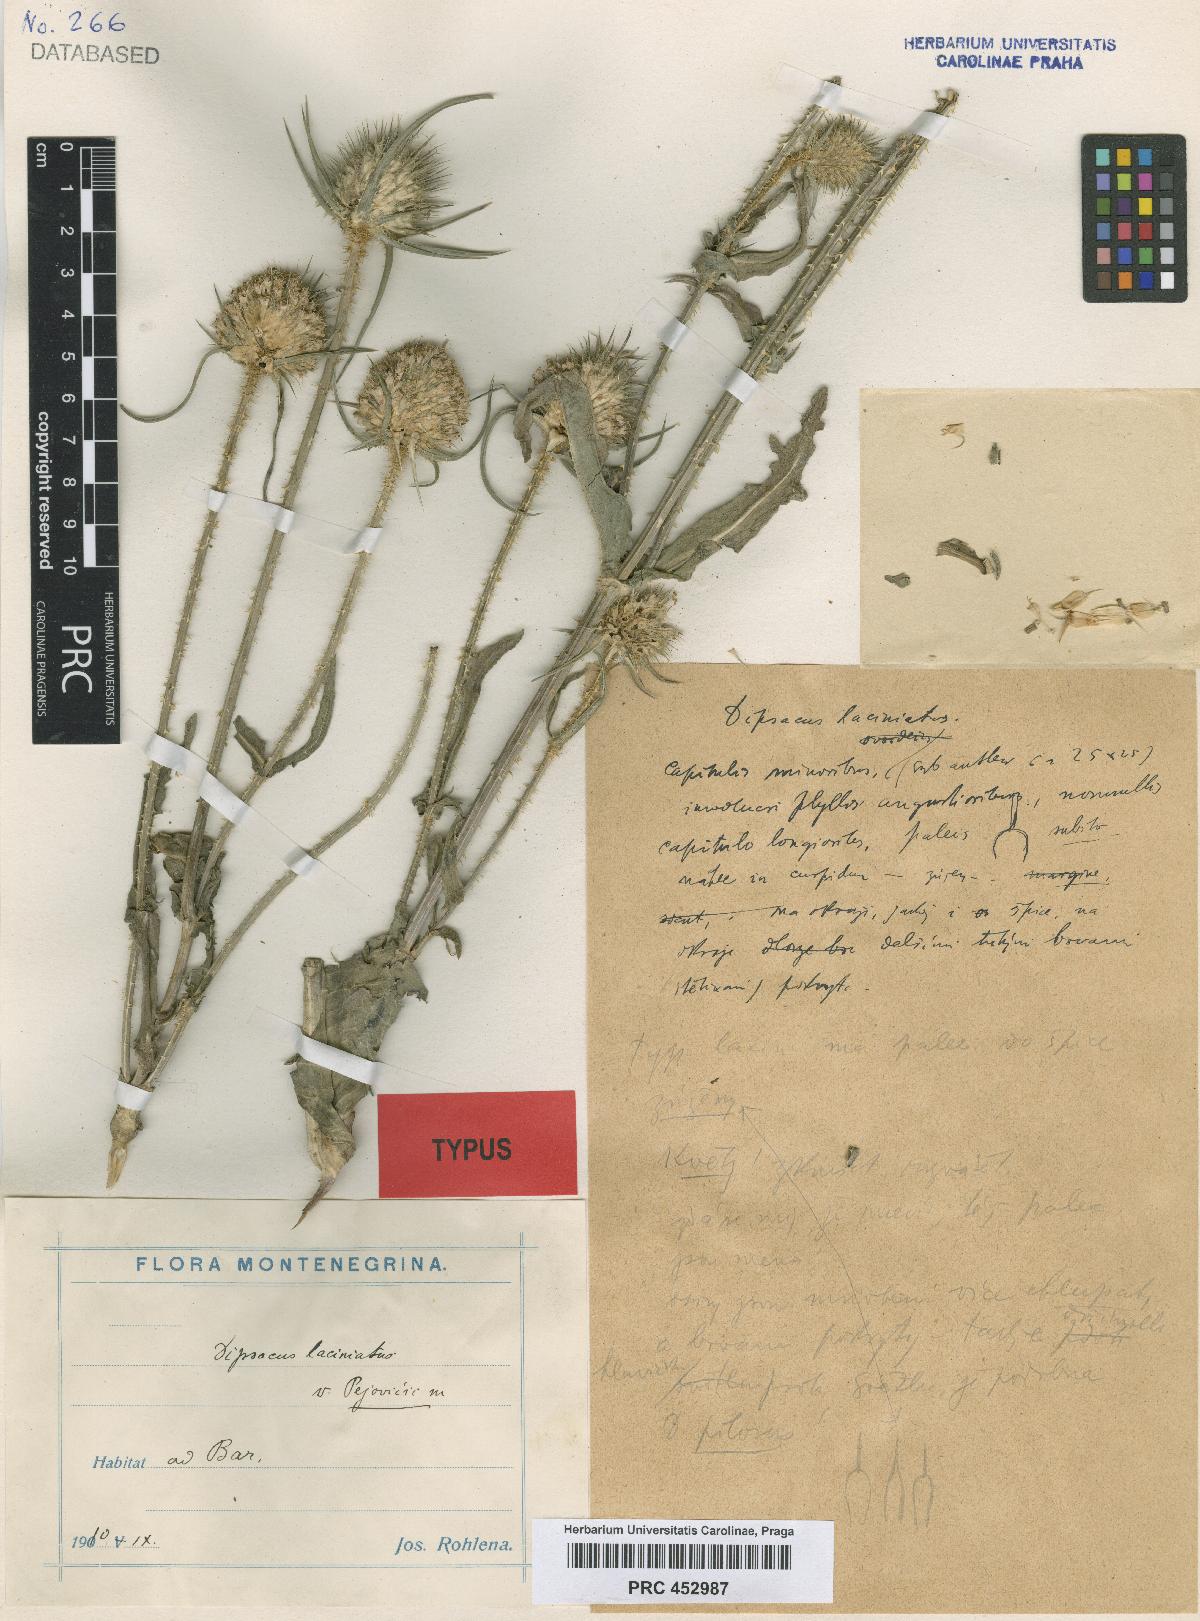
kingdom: Plantae
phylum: Tracheophyta
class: Magnoliopsida
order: Dipsacales
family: Caprifoliaceae
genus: Dipsacus
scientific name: Dipsacus laciniatus
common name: Cut-leaved teasel
